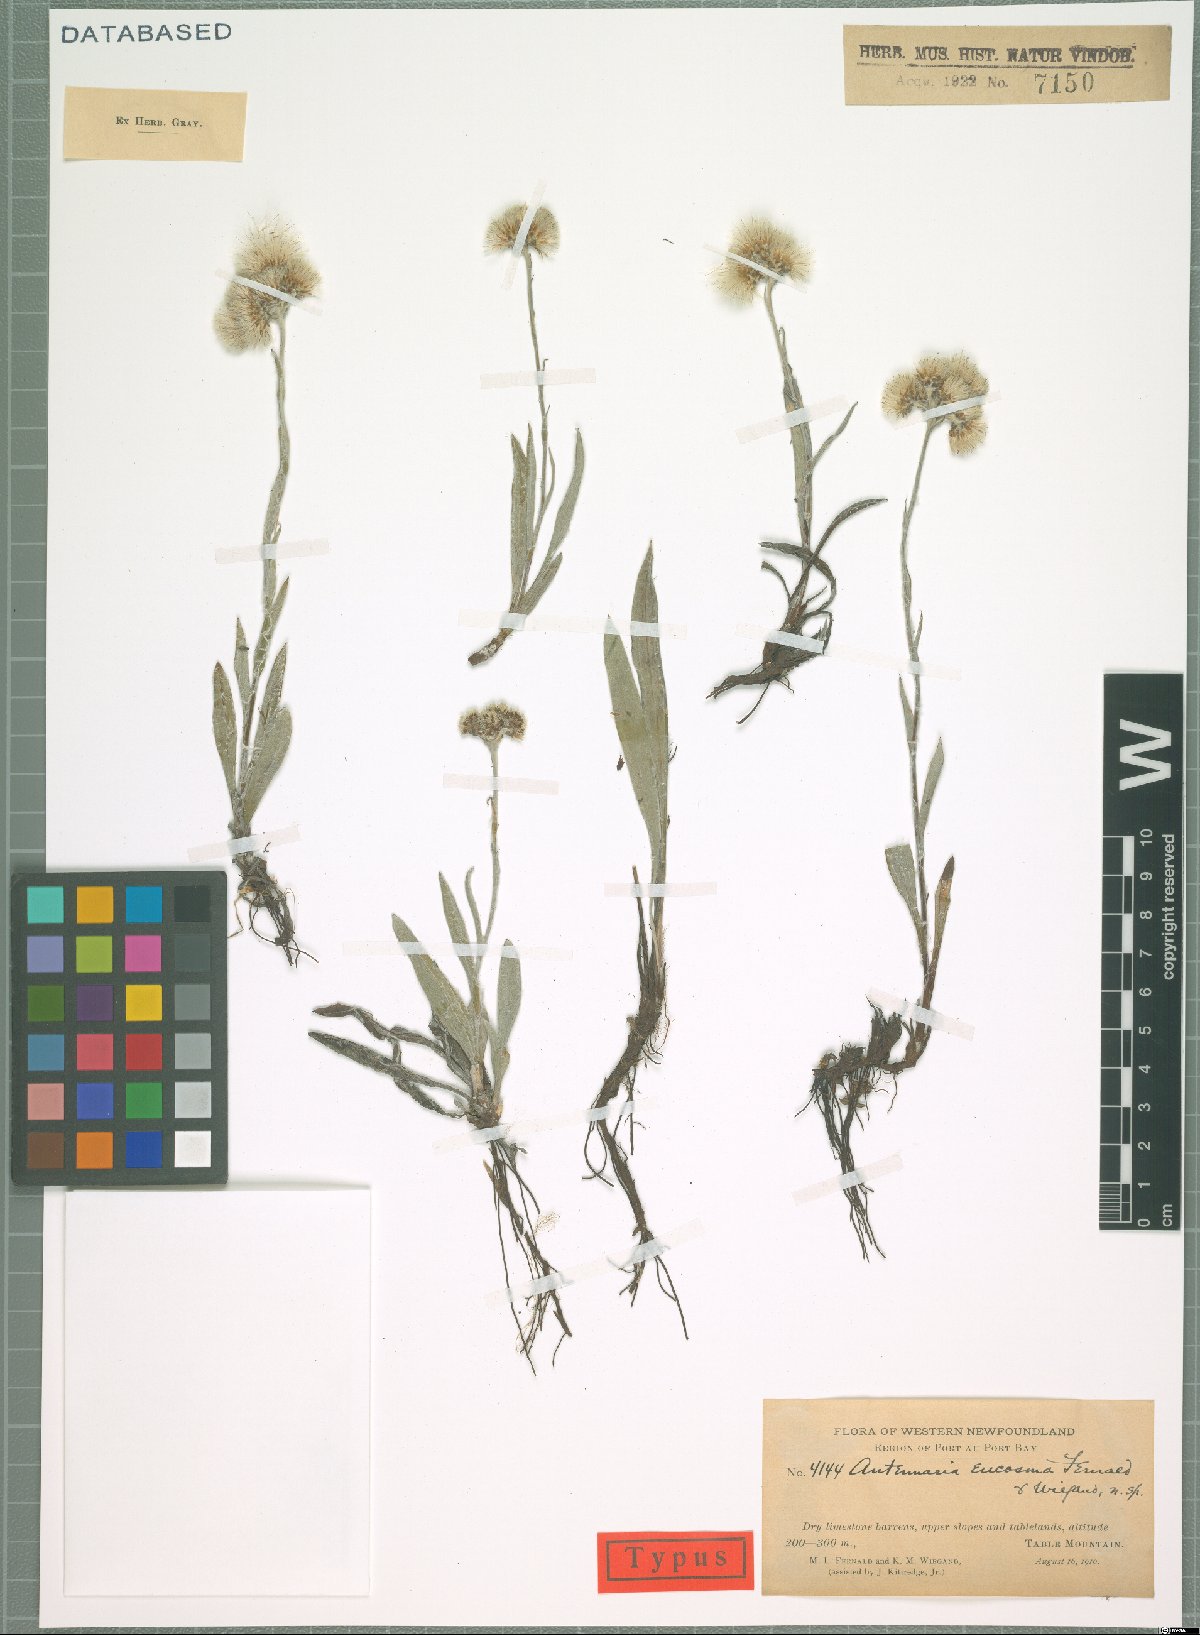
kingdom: Plantae
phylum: Tracheophyta
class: Magnoliopsida
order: Asterales
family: Asteraceae
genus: Antennaria
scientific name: Antennaria pulcherrima
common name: Handsome pussytoes
